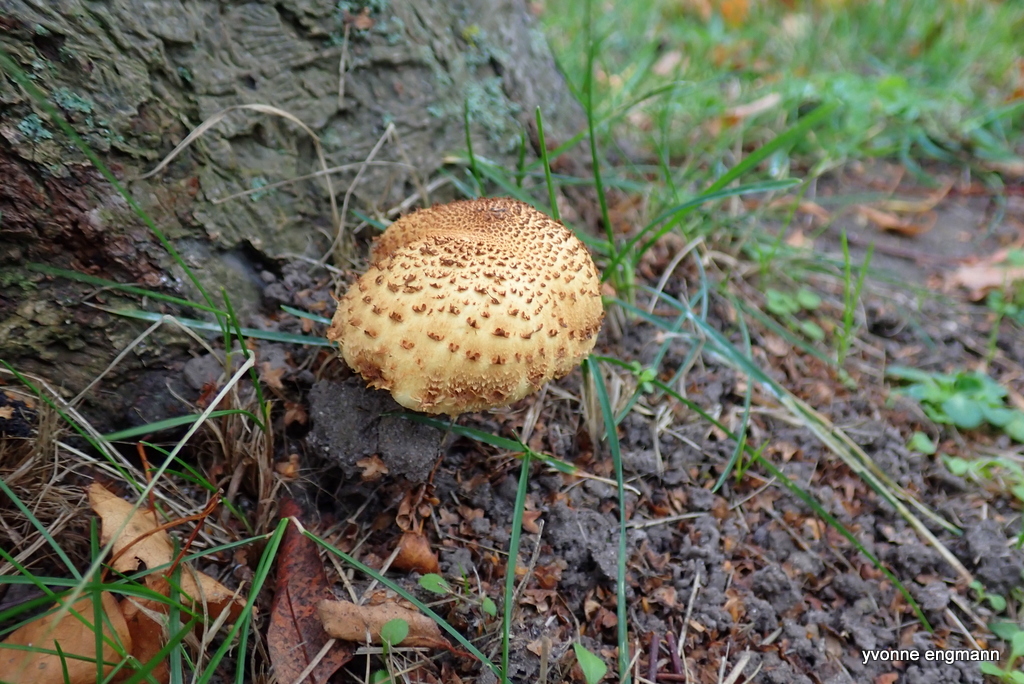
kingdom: Fungi
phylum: Basidiomycota
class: Agaricomycetes
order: Agaricales
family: Strophariaceae
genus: Pholiota
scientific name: Pholiota squarrosa
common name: krumskællet skælhat
